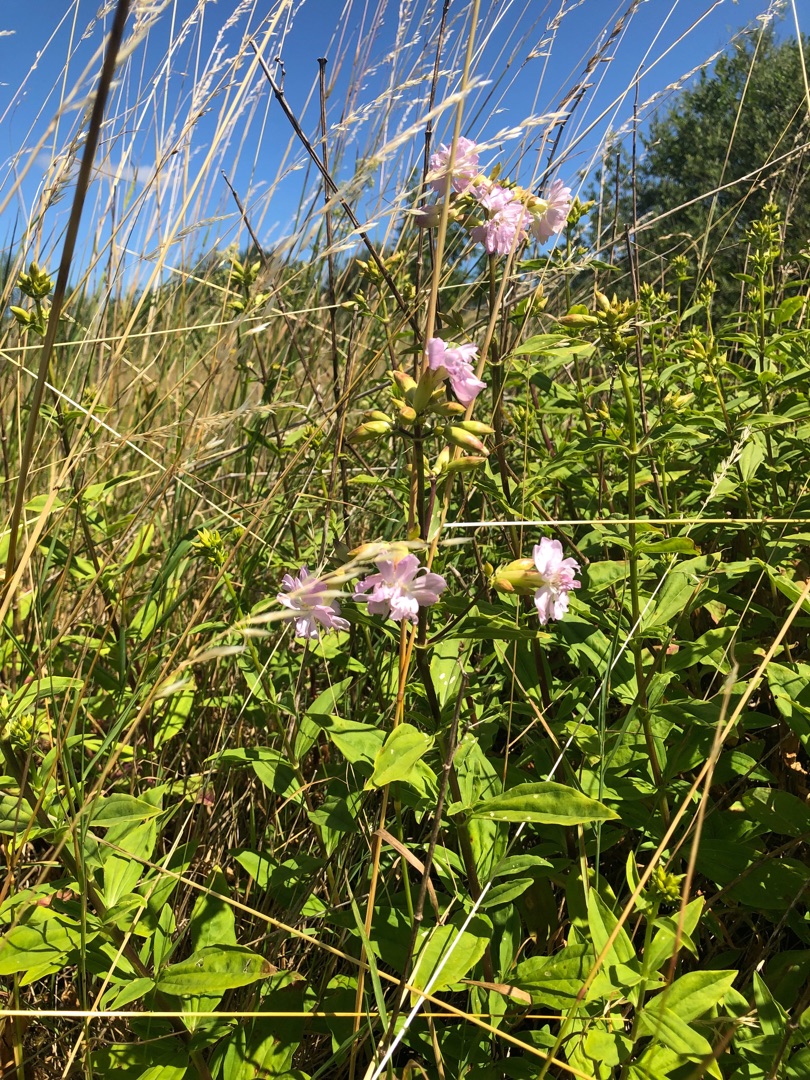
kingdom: Plantae
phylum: Tracheophyta
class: Magnoliopsida
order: Caryophyllales
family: Caryophyllaceae
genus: Saponaria
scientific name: Saponaria officinalis
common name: Sæbeurt
